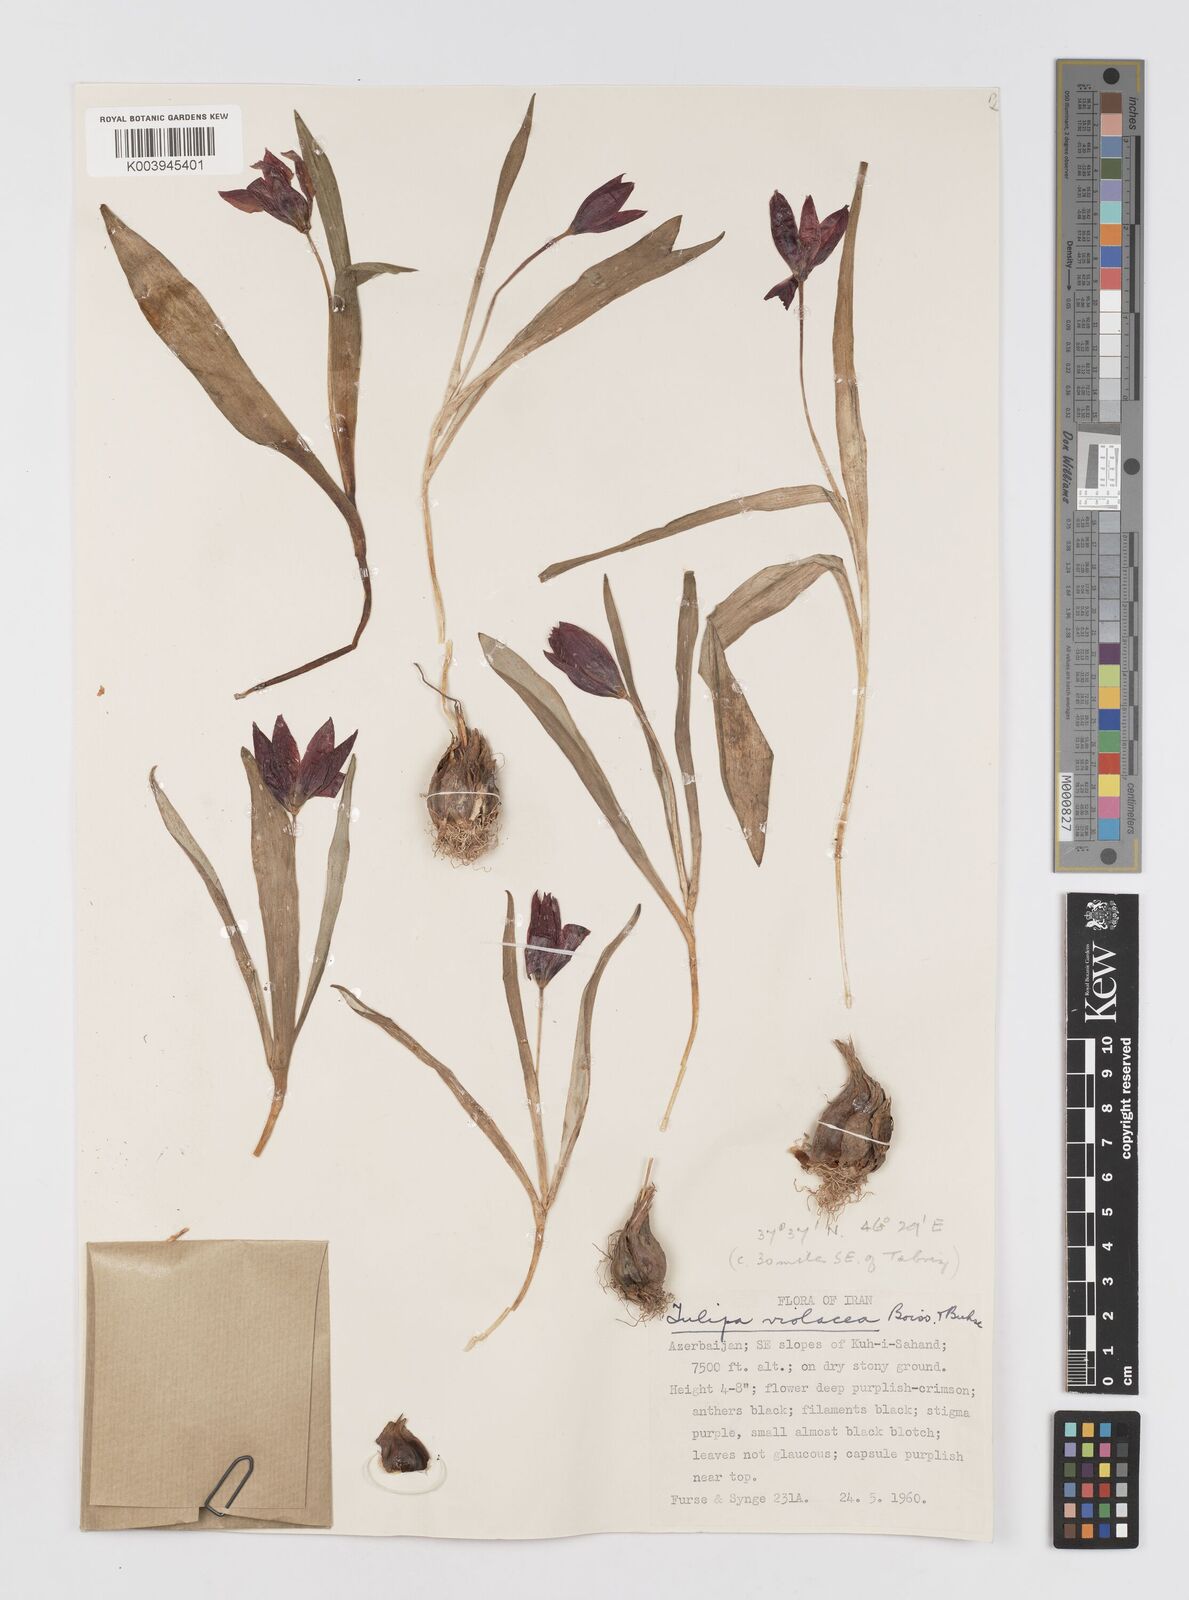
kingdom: Plantae
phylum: Tracheophyta
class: Liliopsida
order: Liliales
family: Liliaceae
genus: Tulipa
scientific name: Tulipa humilis
